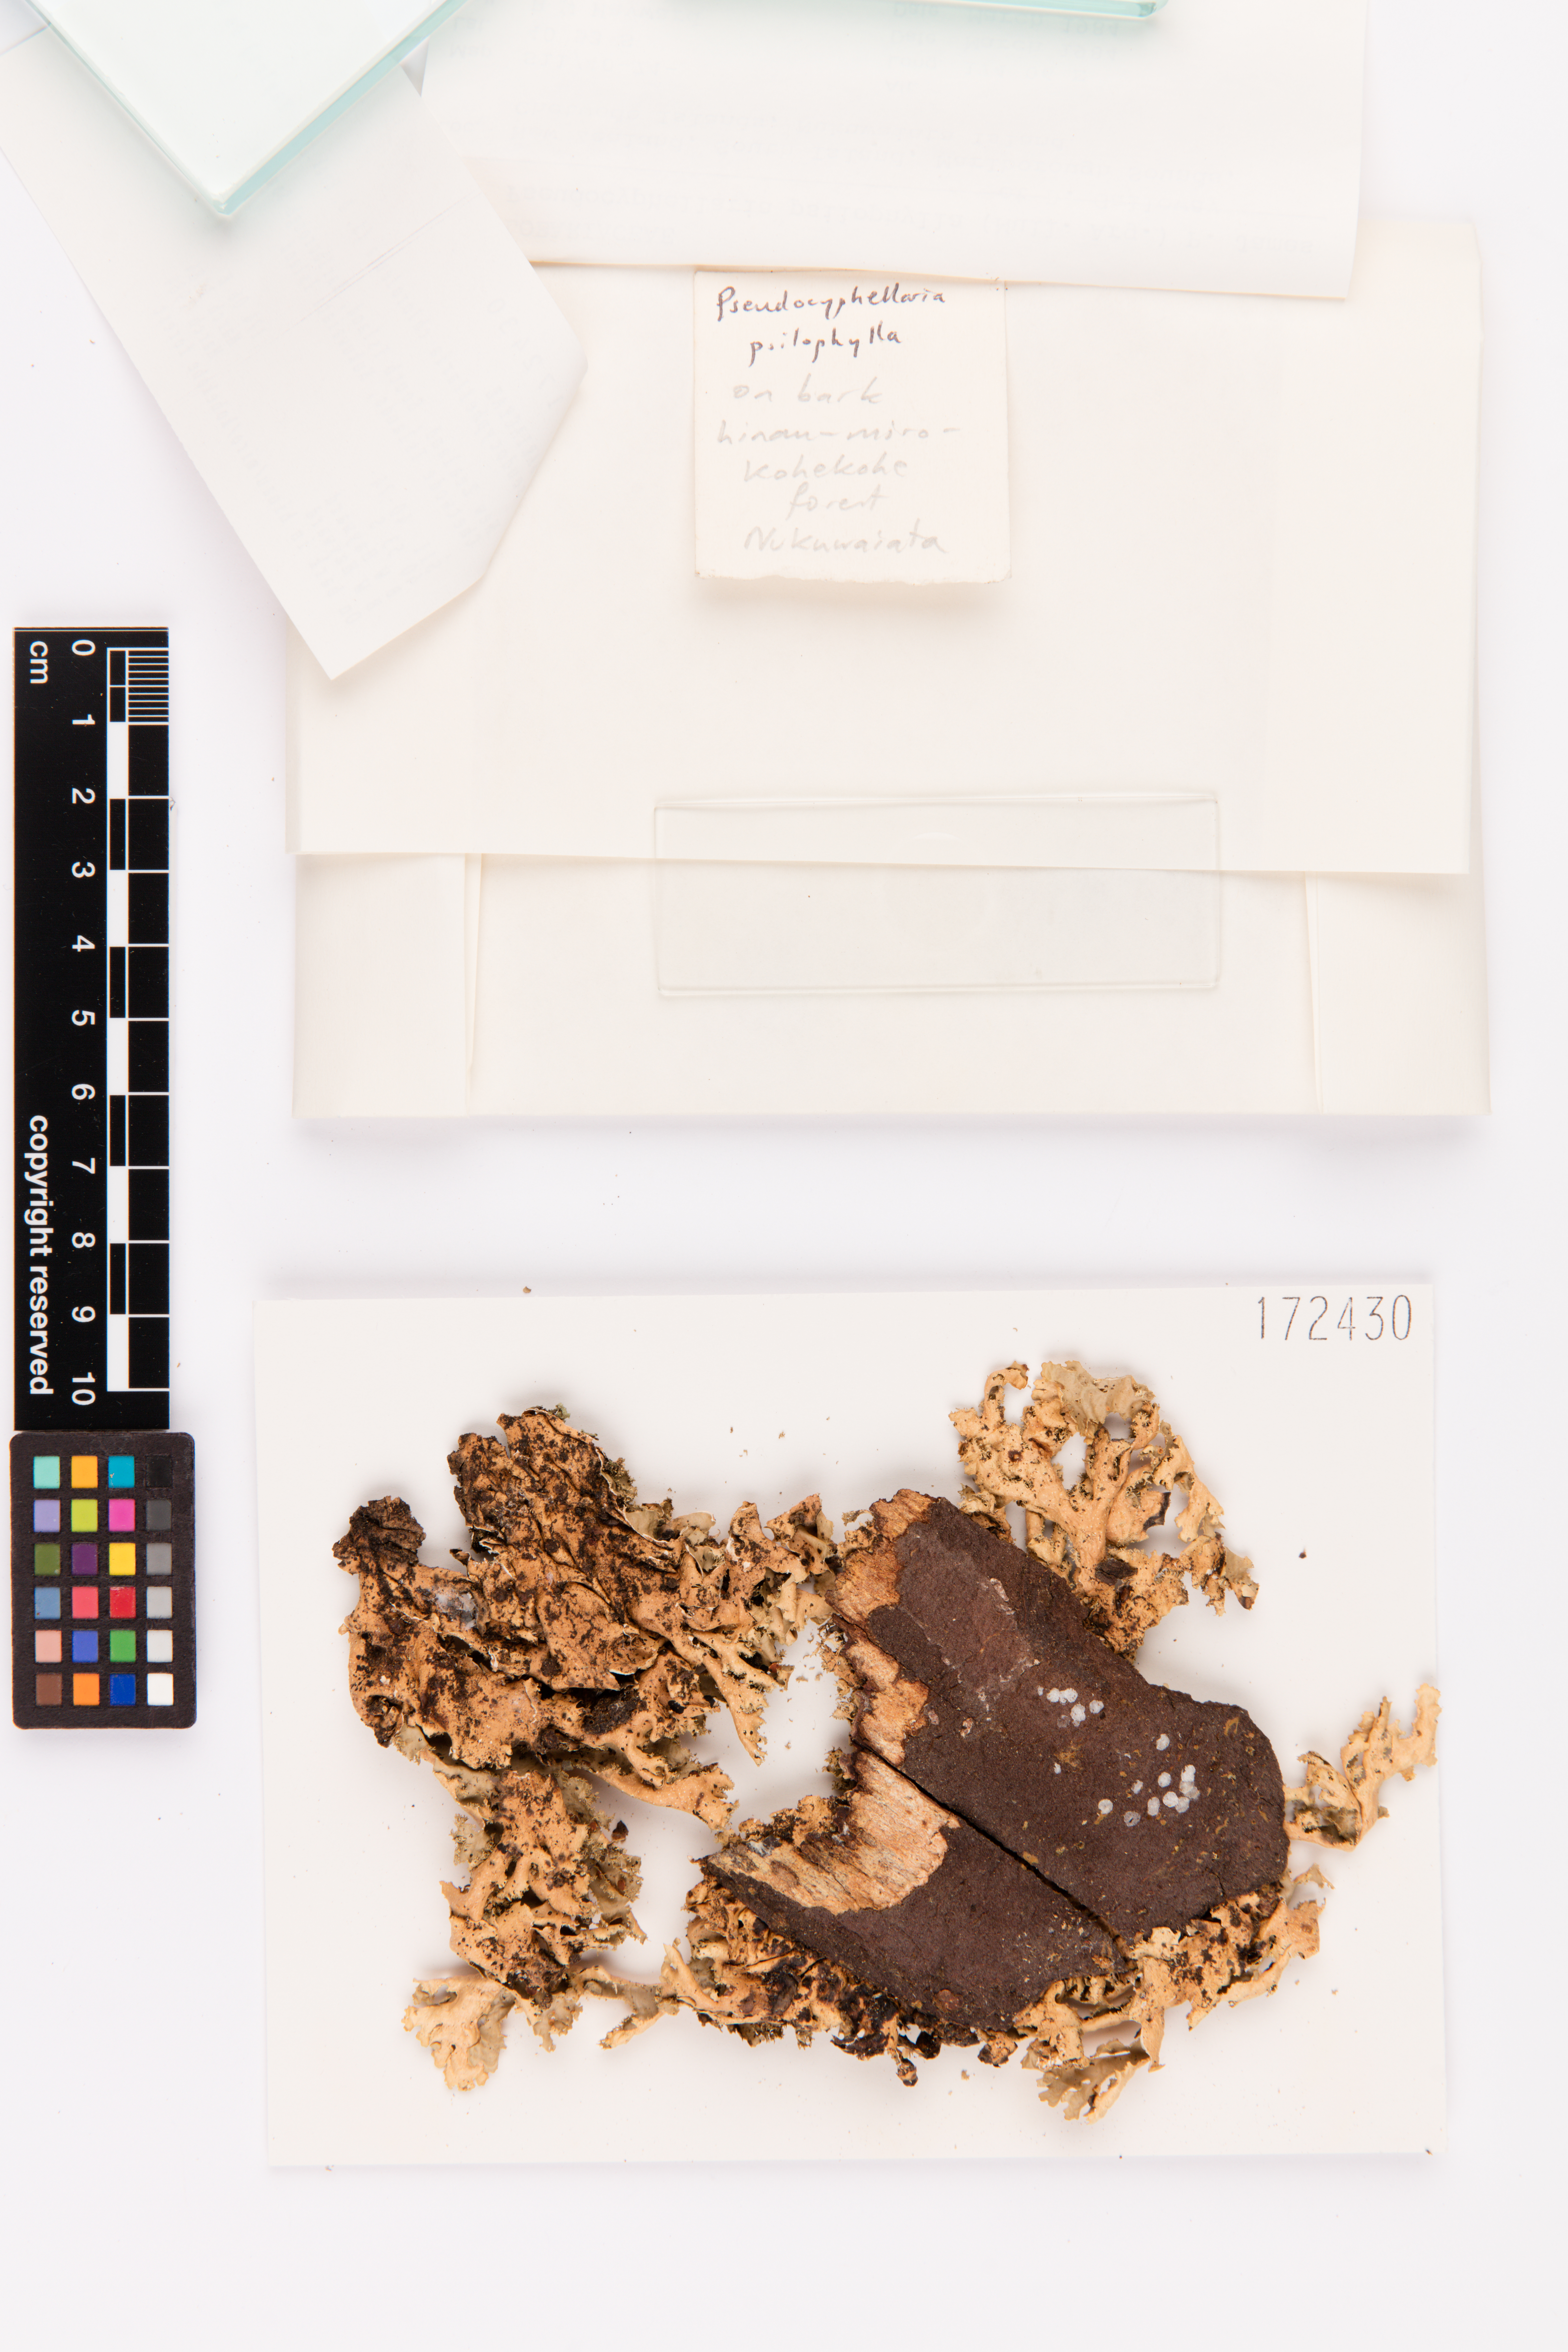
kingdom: Fungi
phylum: Ascomycota
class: Lecanoromycetes
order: Peltigerales
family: Lobariaceae
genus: Pseudocyphellaria
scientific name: Pseudocyphellaria chloroleuca
